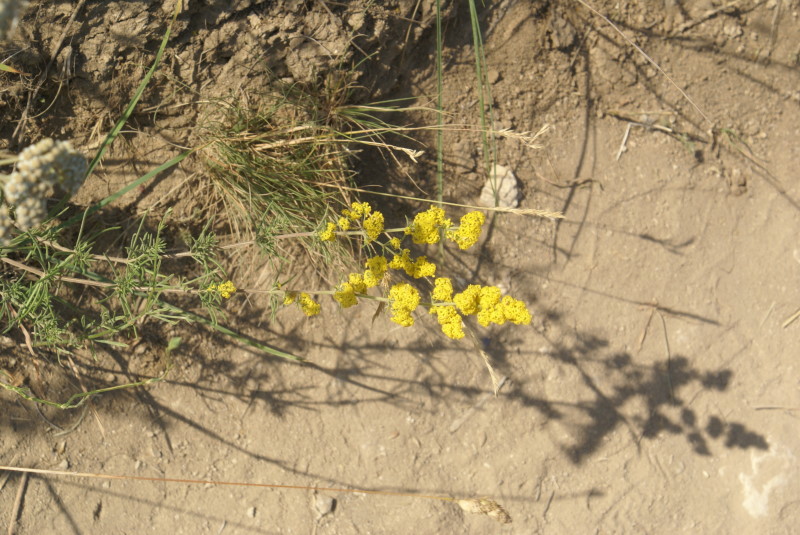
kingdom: Plantae
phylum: Tracheophyta
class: Magnoliopsida
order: Gentianales
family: Rubiaceae
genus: Galium
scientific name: Galium verum
